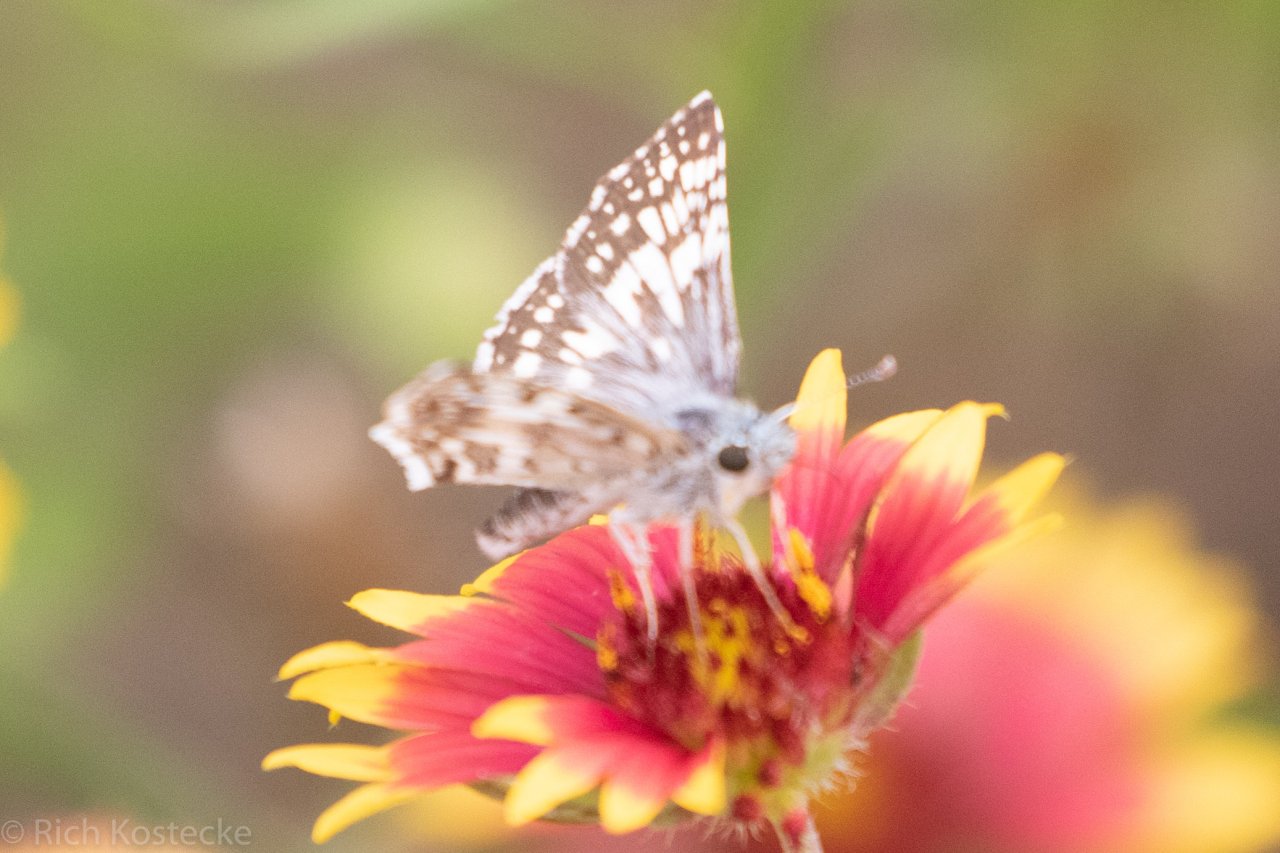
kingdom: Animalia
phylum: Arthropoda
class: Insecta
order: Lepidoptera
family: Hesperiidae
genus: Pyrgus
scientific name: Pyrgus
